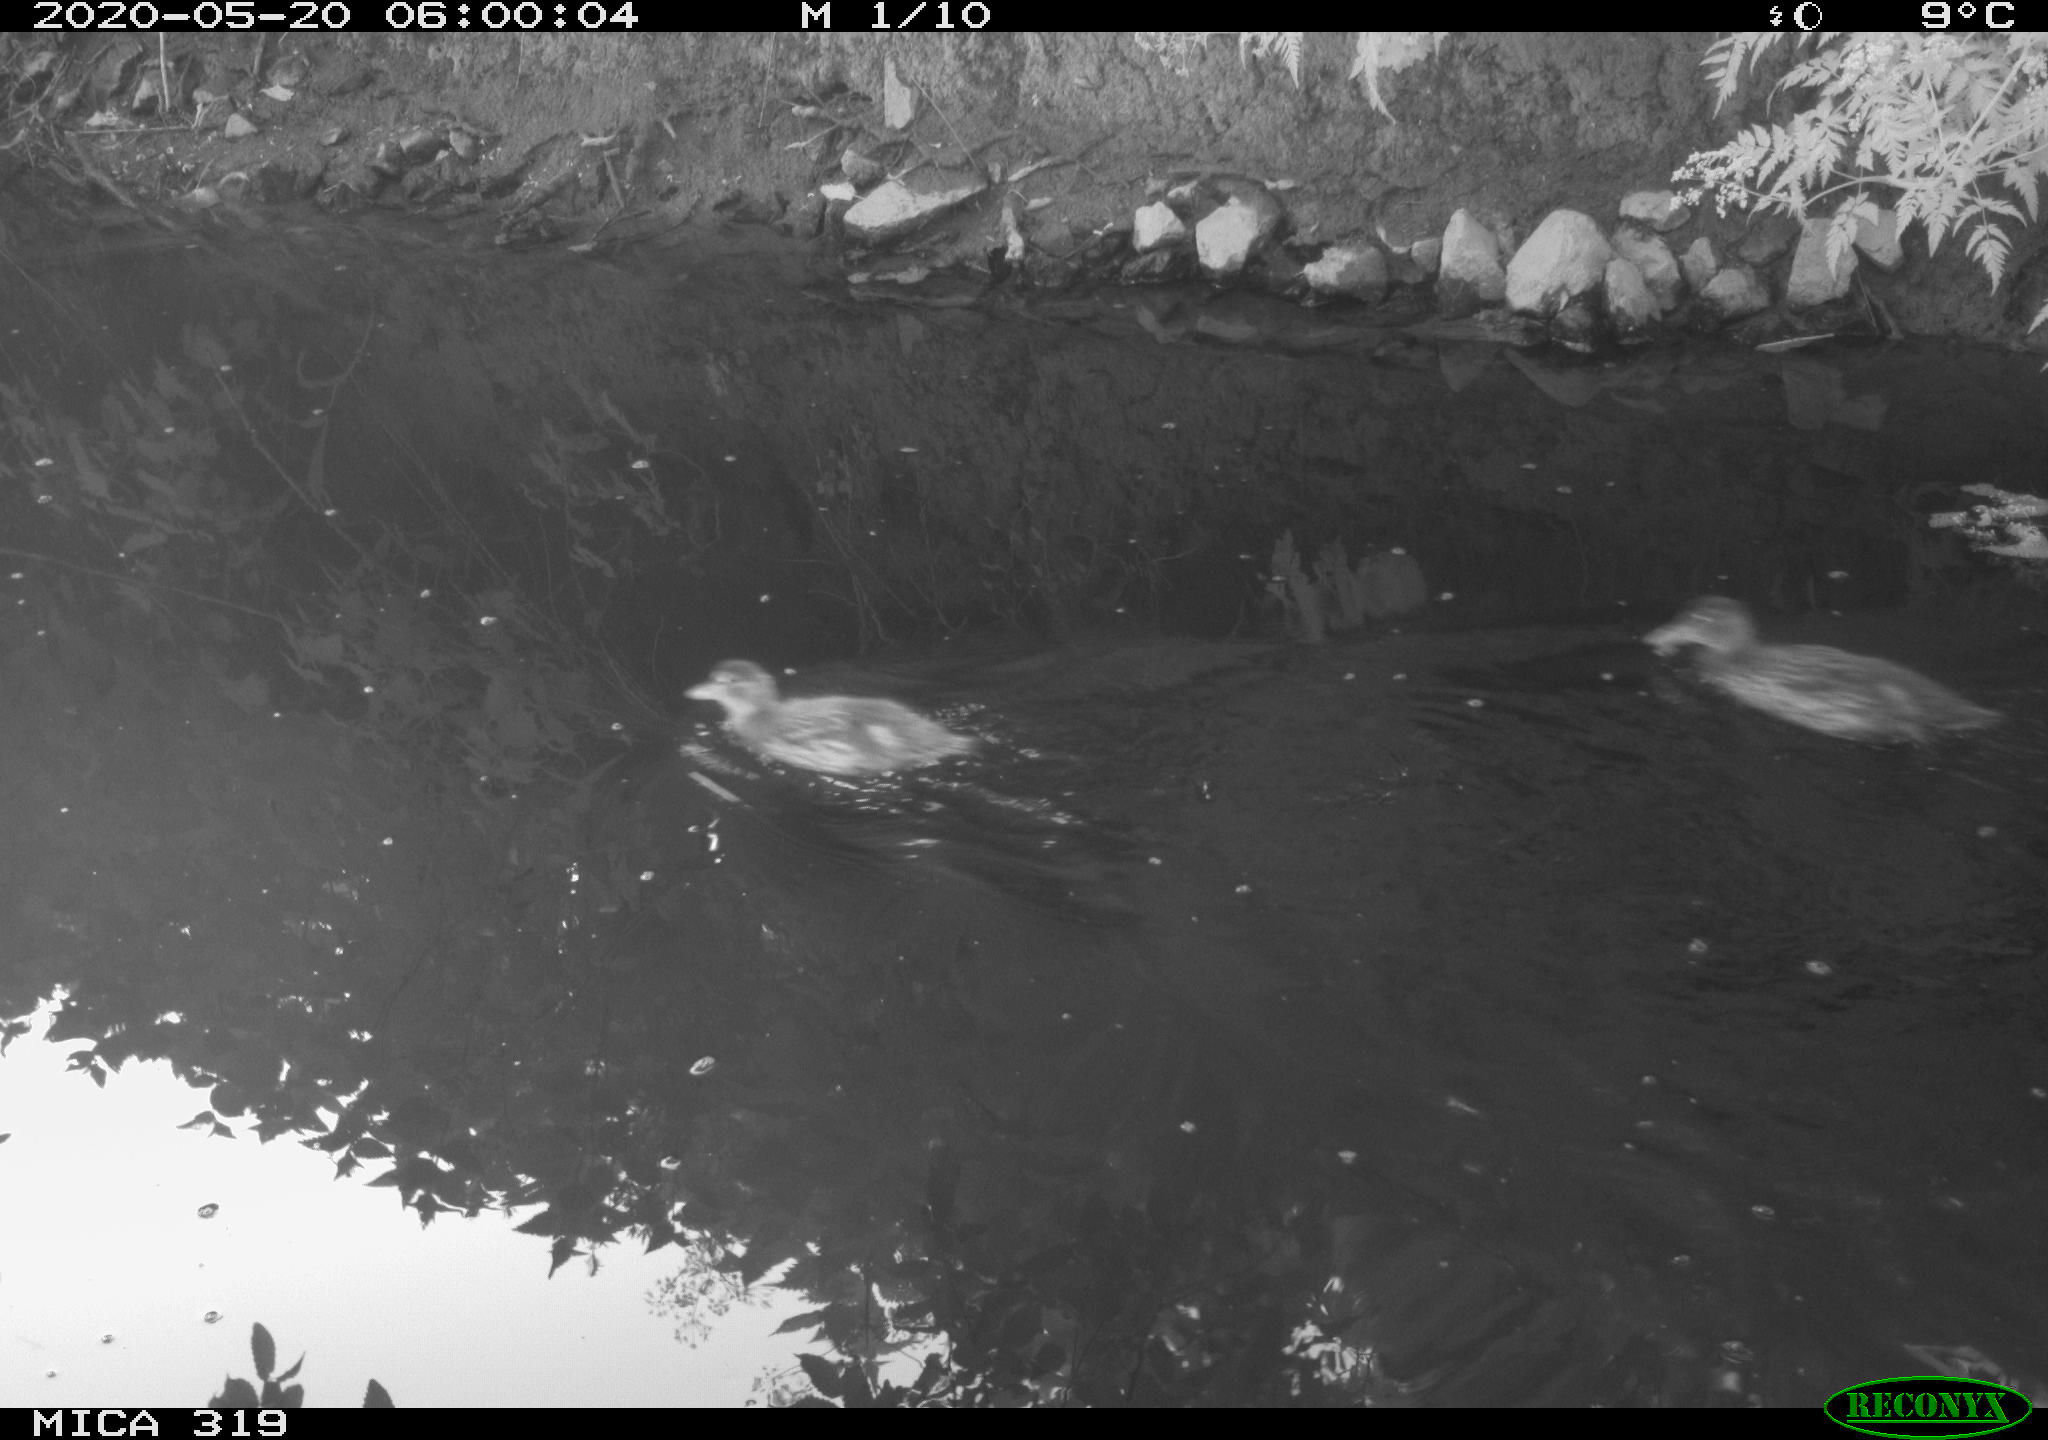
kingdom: Animalia
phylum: Chordata
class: Aves
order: Anseriformes
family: Anatidae
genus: Anas
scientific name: Anas platyrhynchos
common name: Mallard
